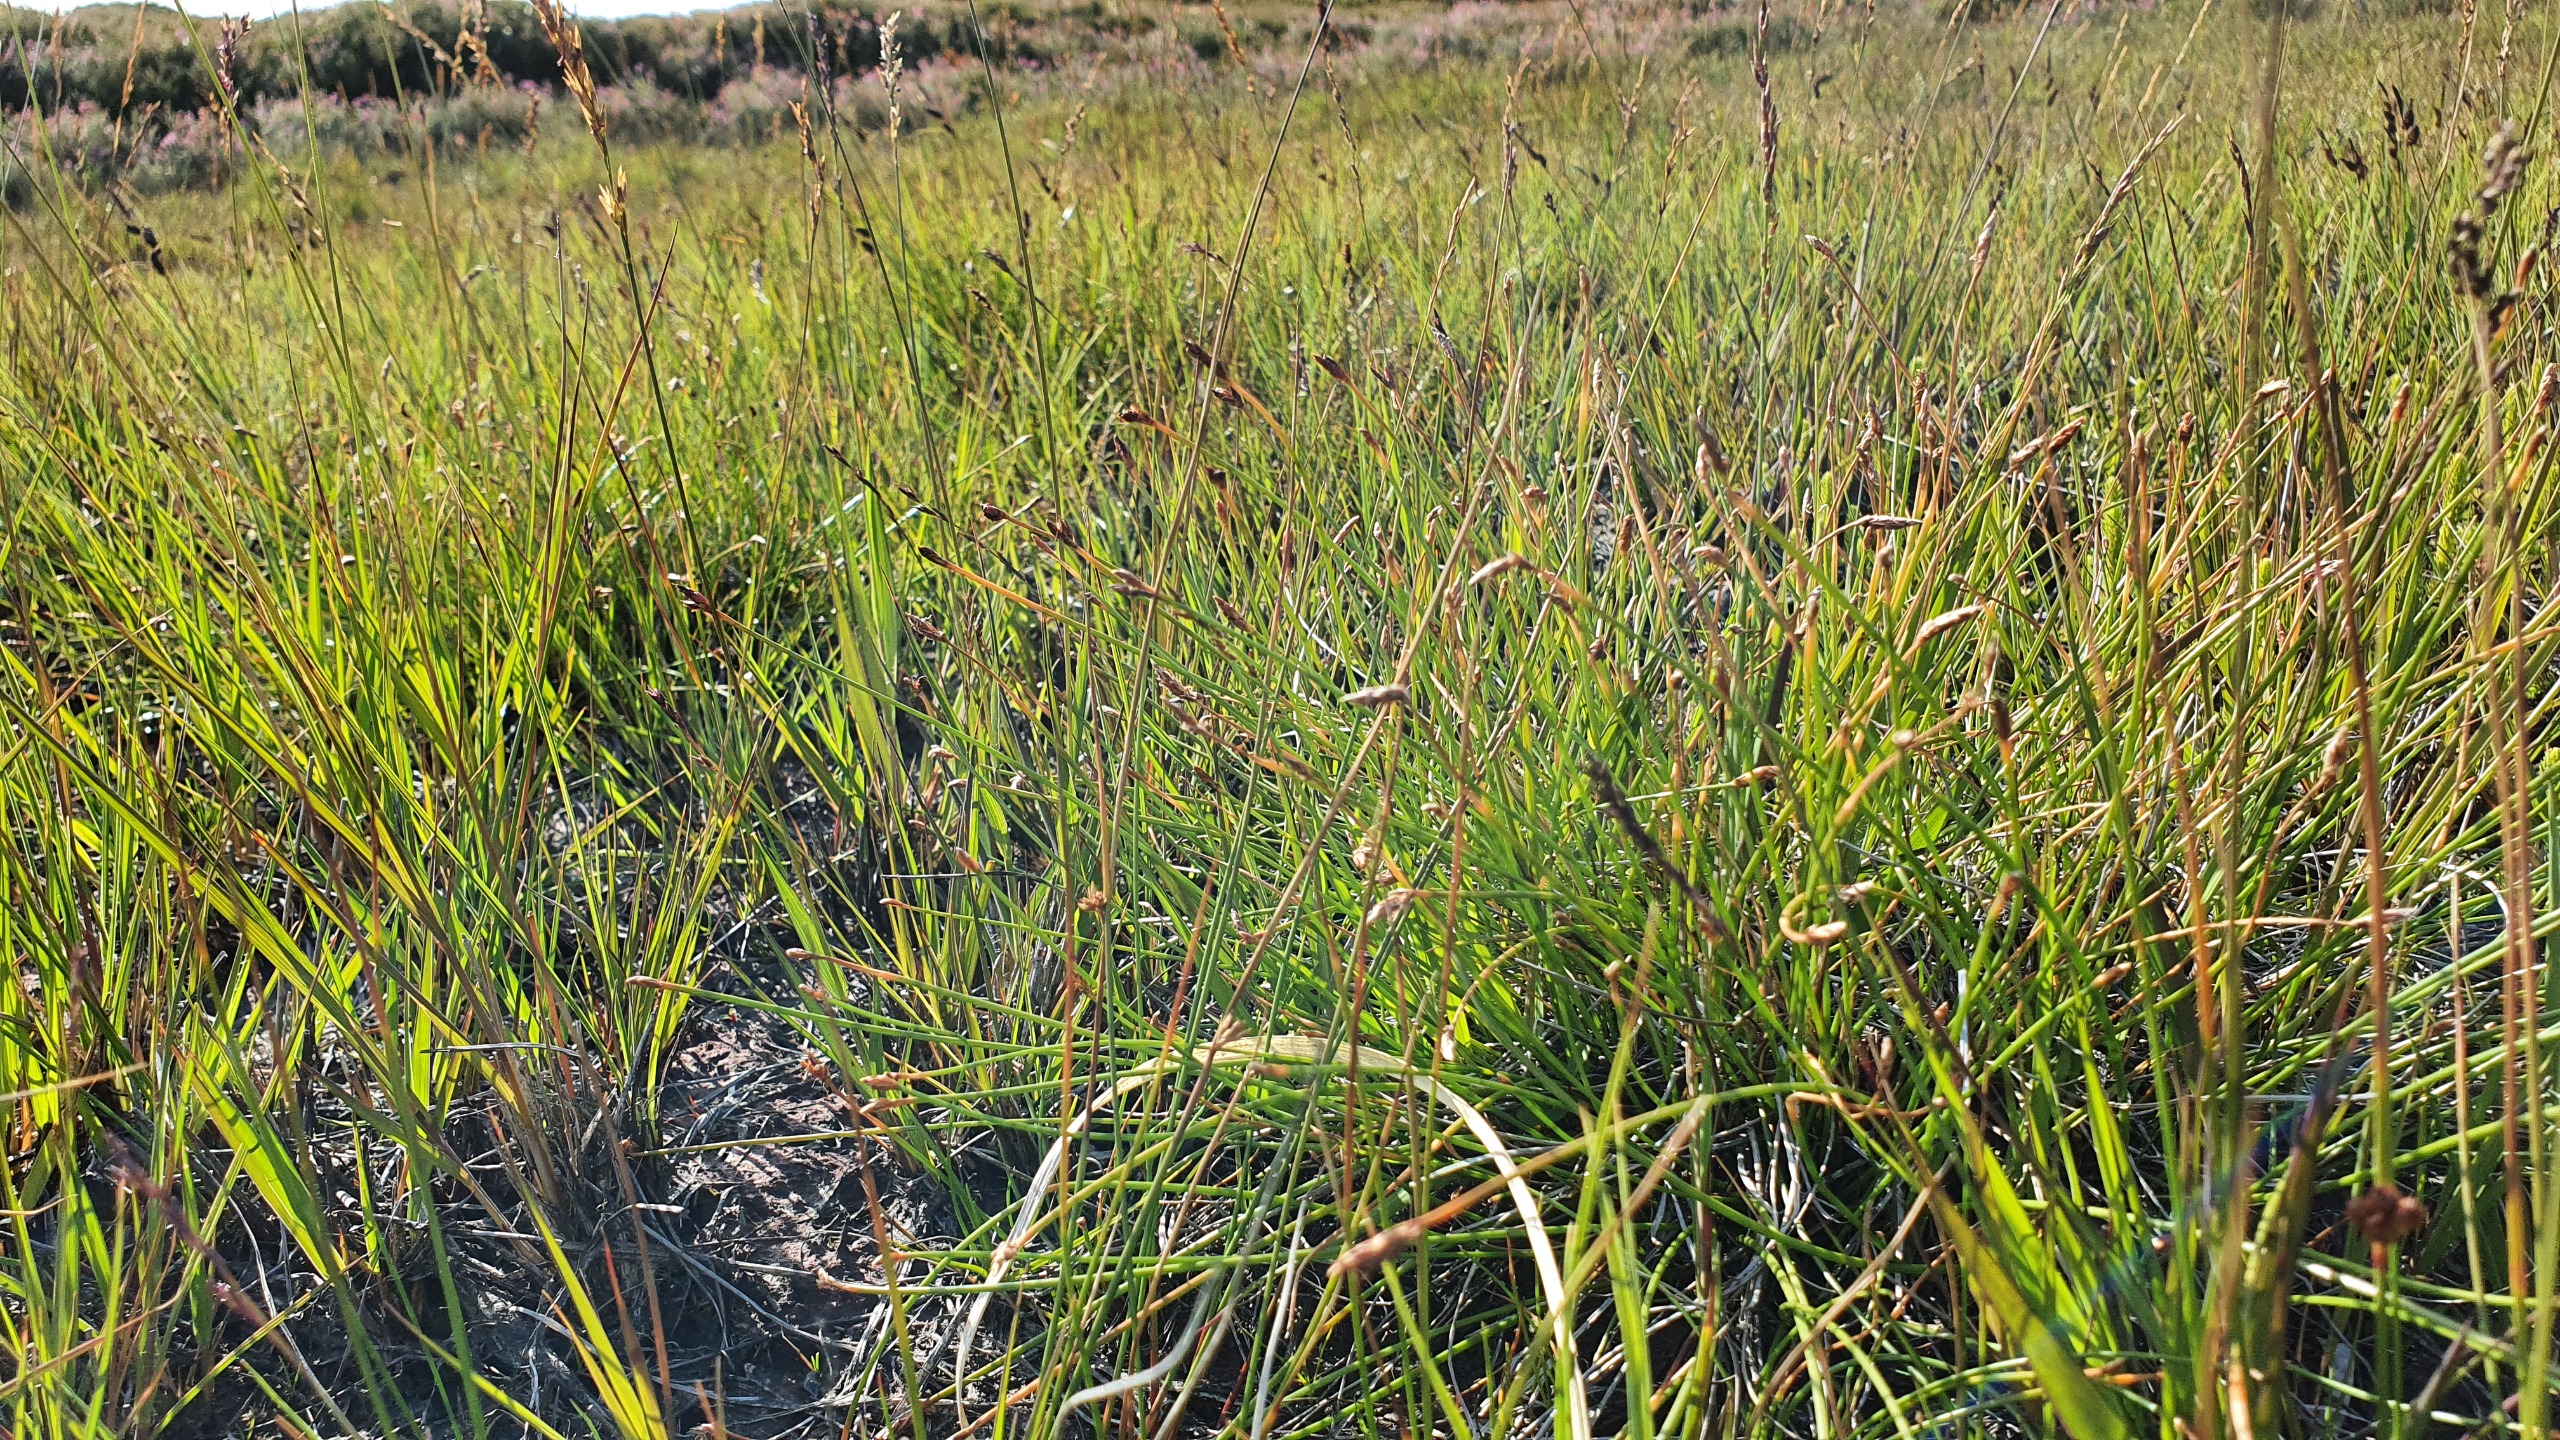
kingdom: Plantae
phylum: Tracheophyta
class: Liliopsida
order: Poales
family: Cyperaceae
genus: Eleocharis
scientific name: Eleocharis multicaulis
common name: Mangestænglet sumpstrå
